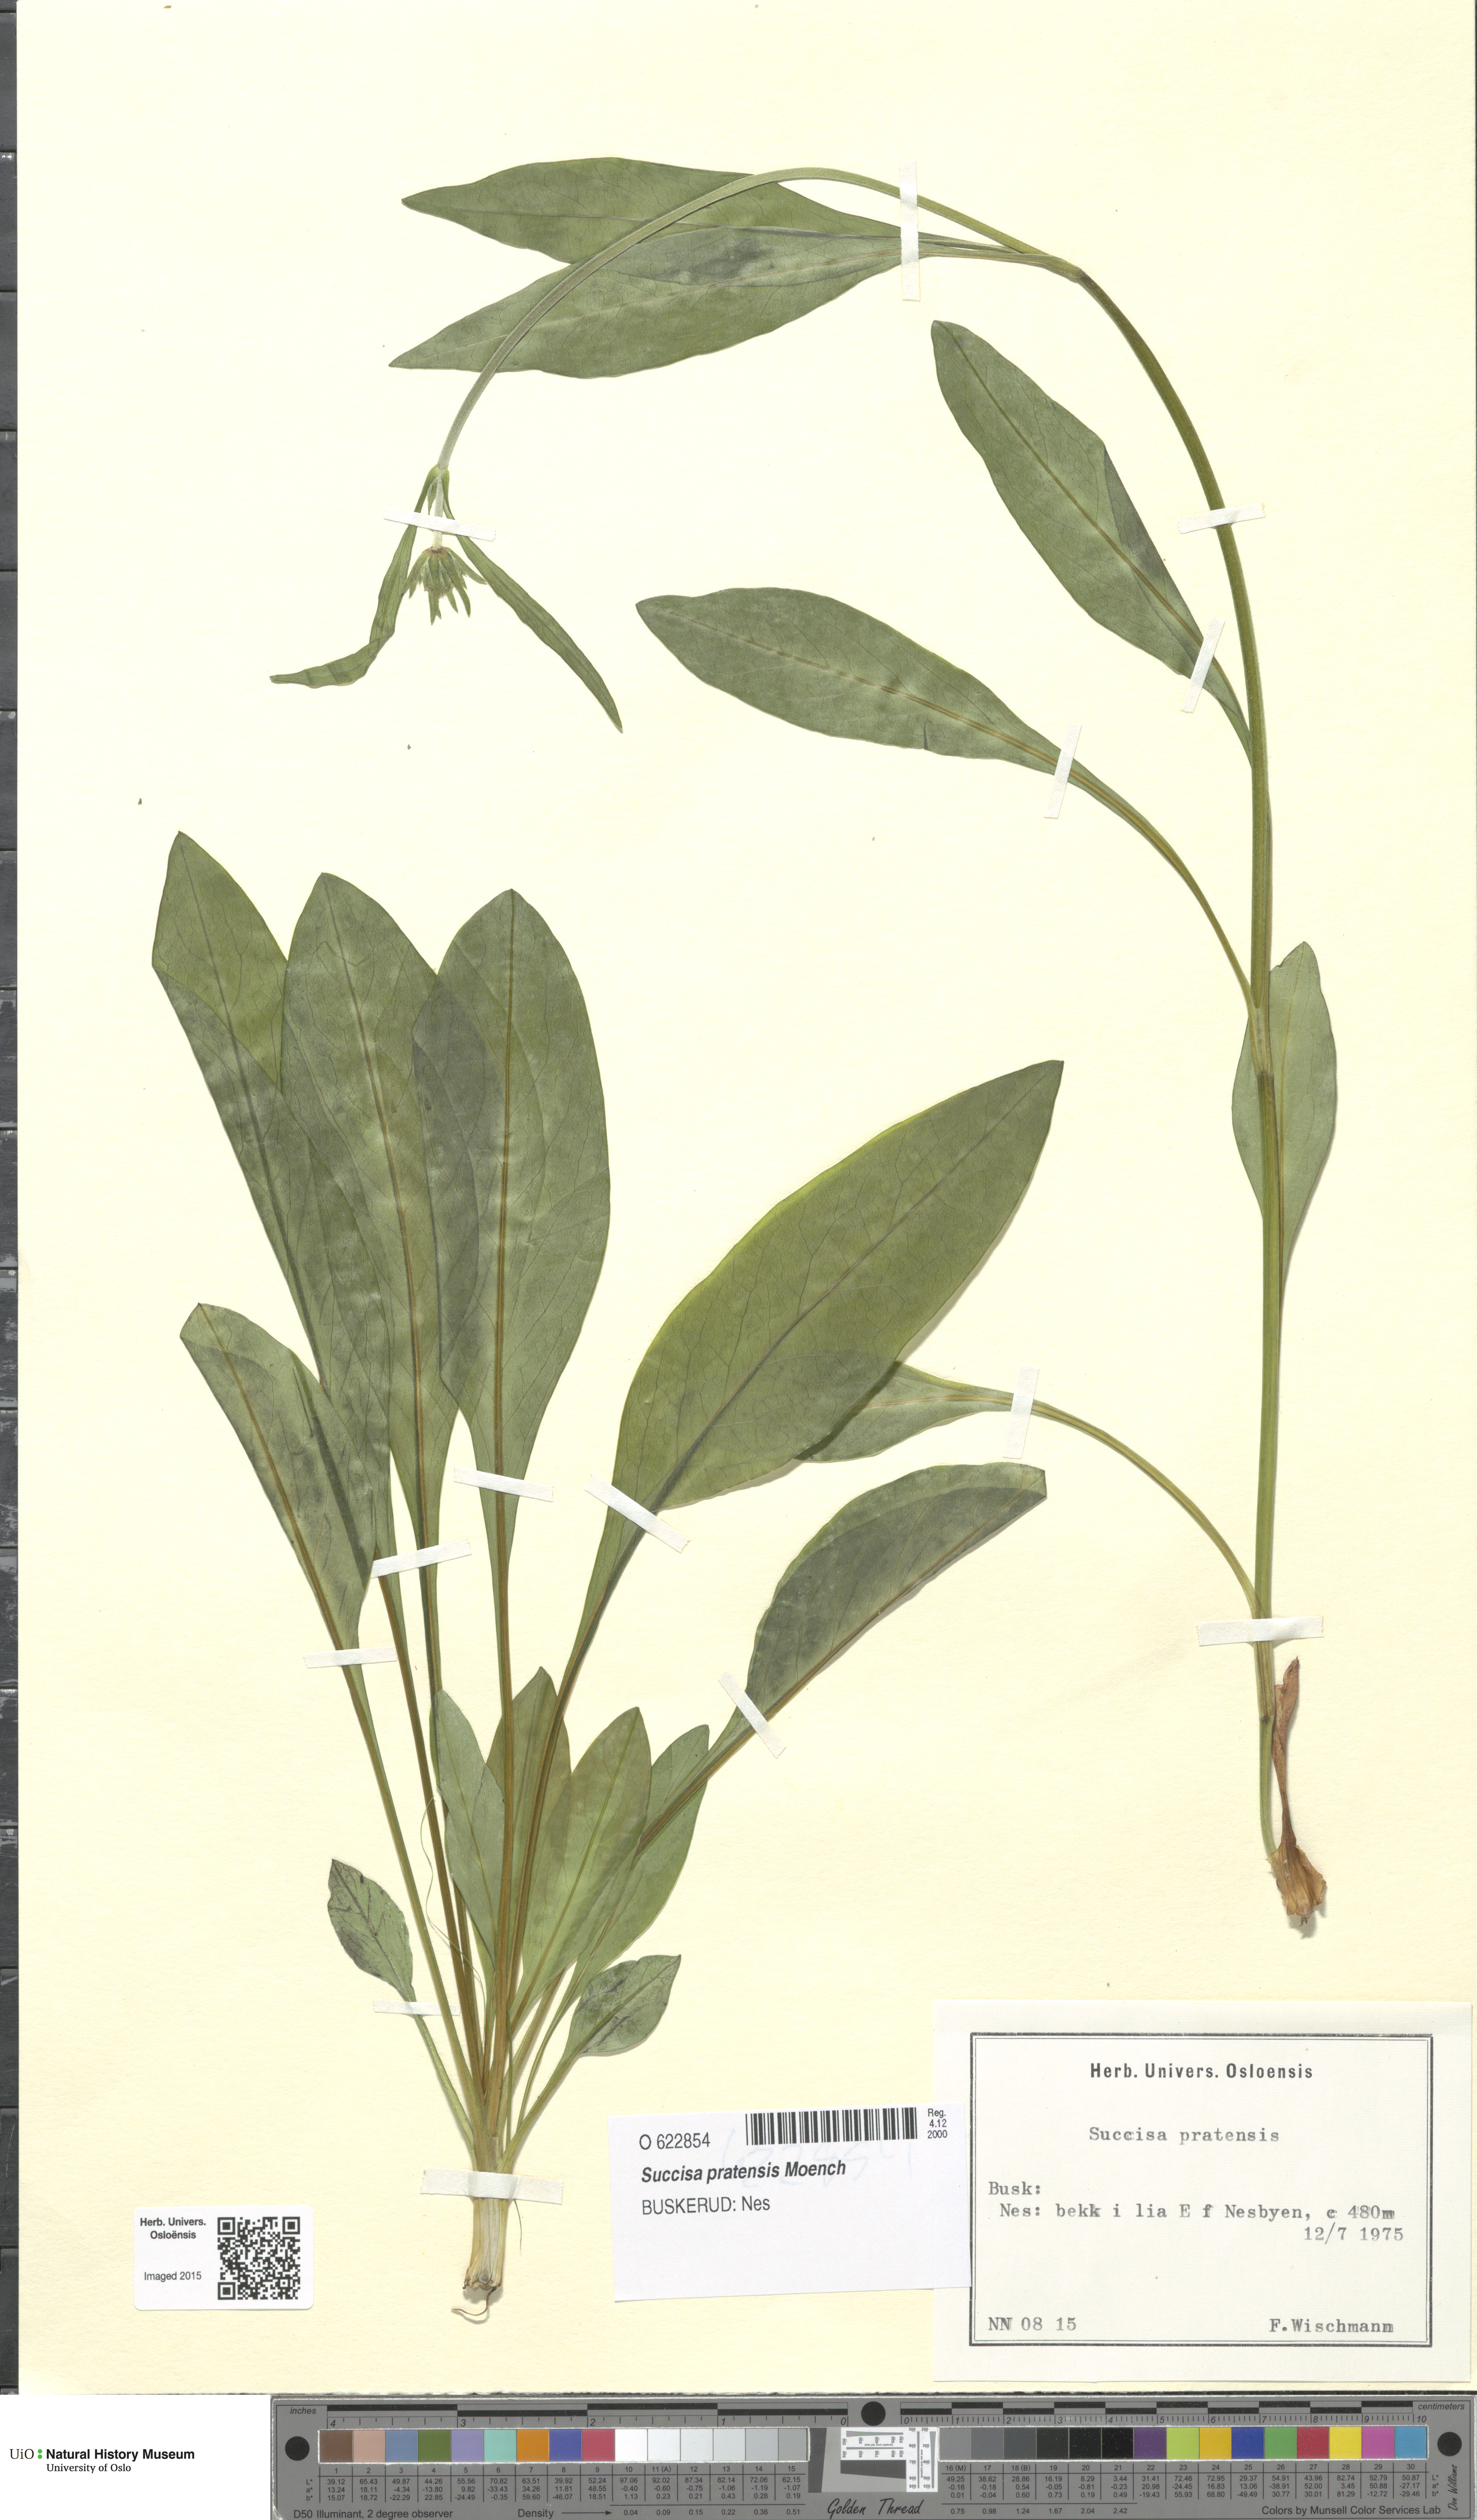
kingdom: Plantae
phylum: Tracheophyta
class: Magnoliopsida
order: Dipsacales
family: Caprifoliaceae
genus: Succisa
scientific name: Succisa pratensis
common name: Devil's-bit
